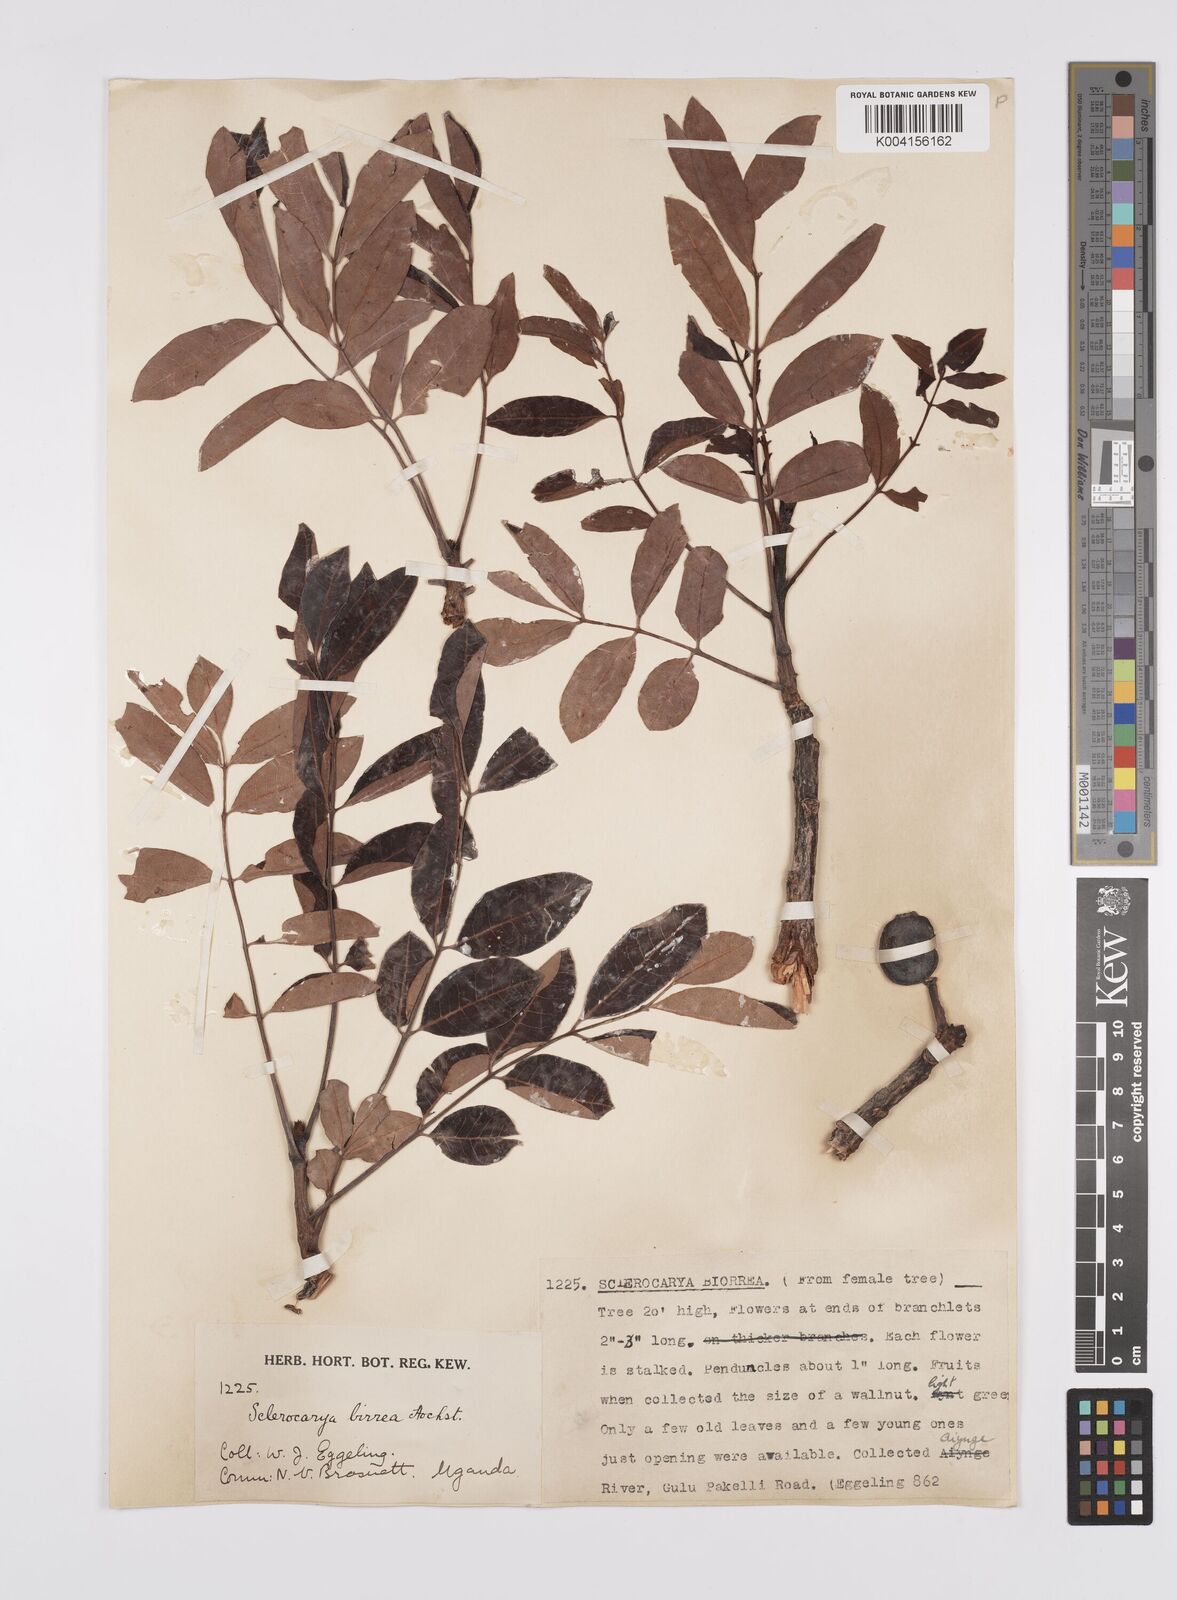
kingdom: Plantae
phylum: Tracheophyta
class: Magnoliopsida
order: Sapindales
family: Anacardiaceae
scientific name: Anacardiaceae
